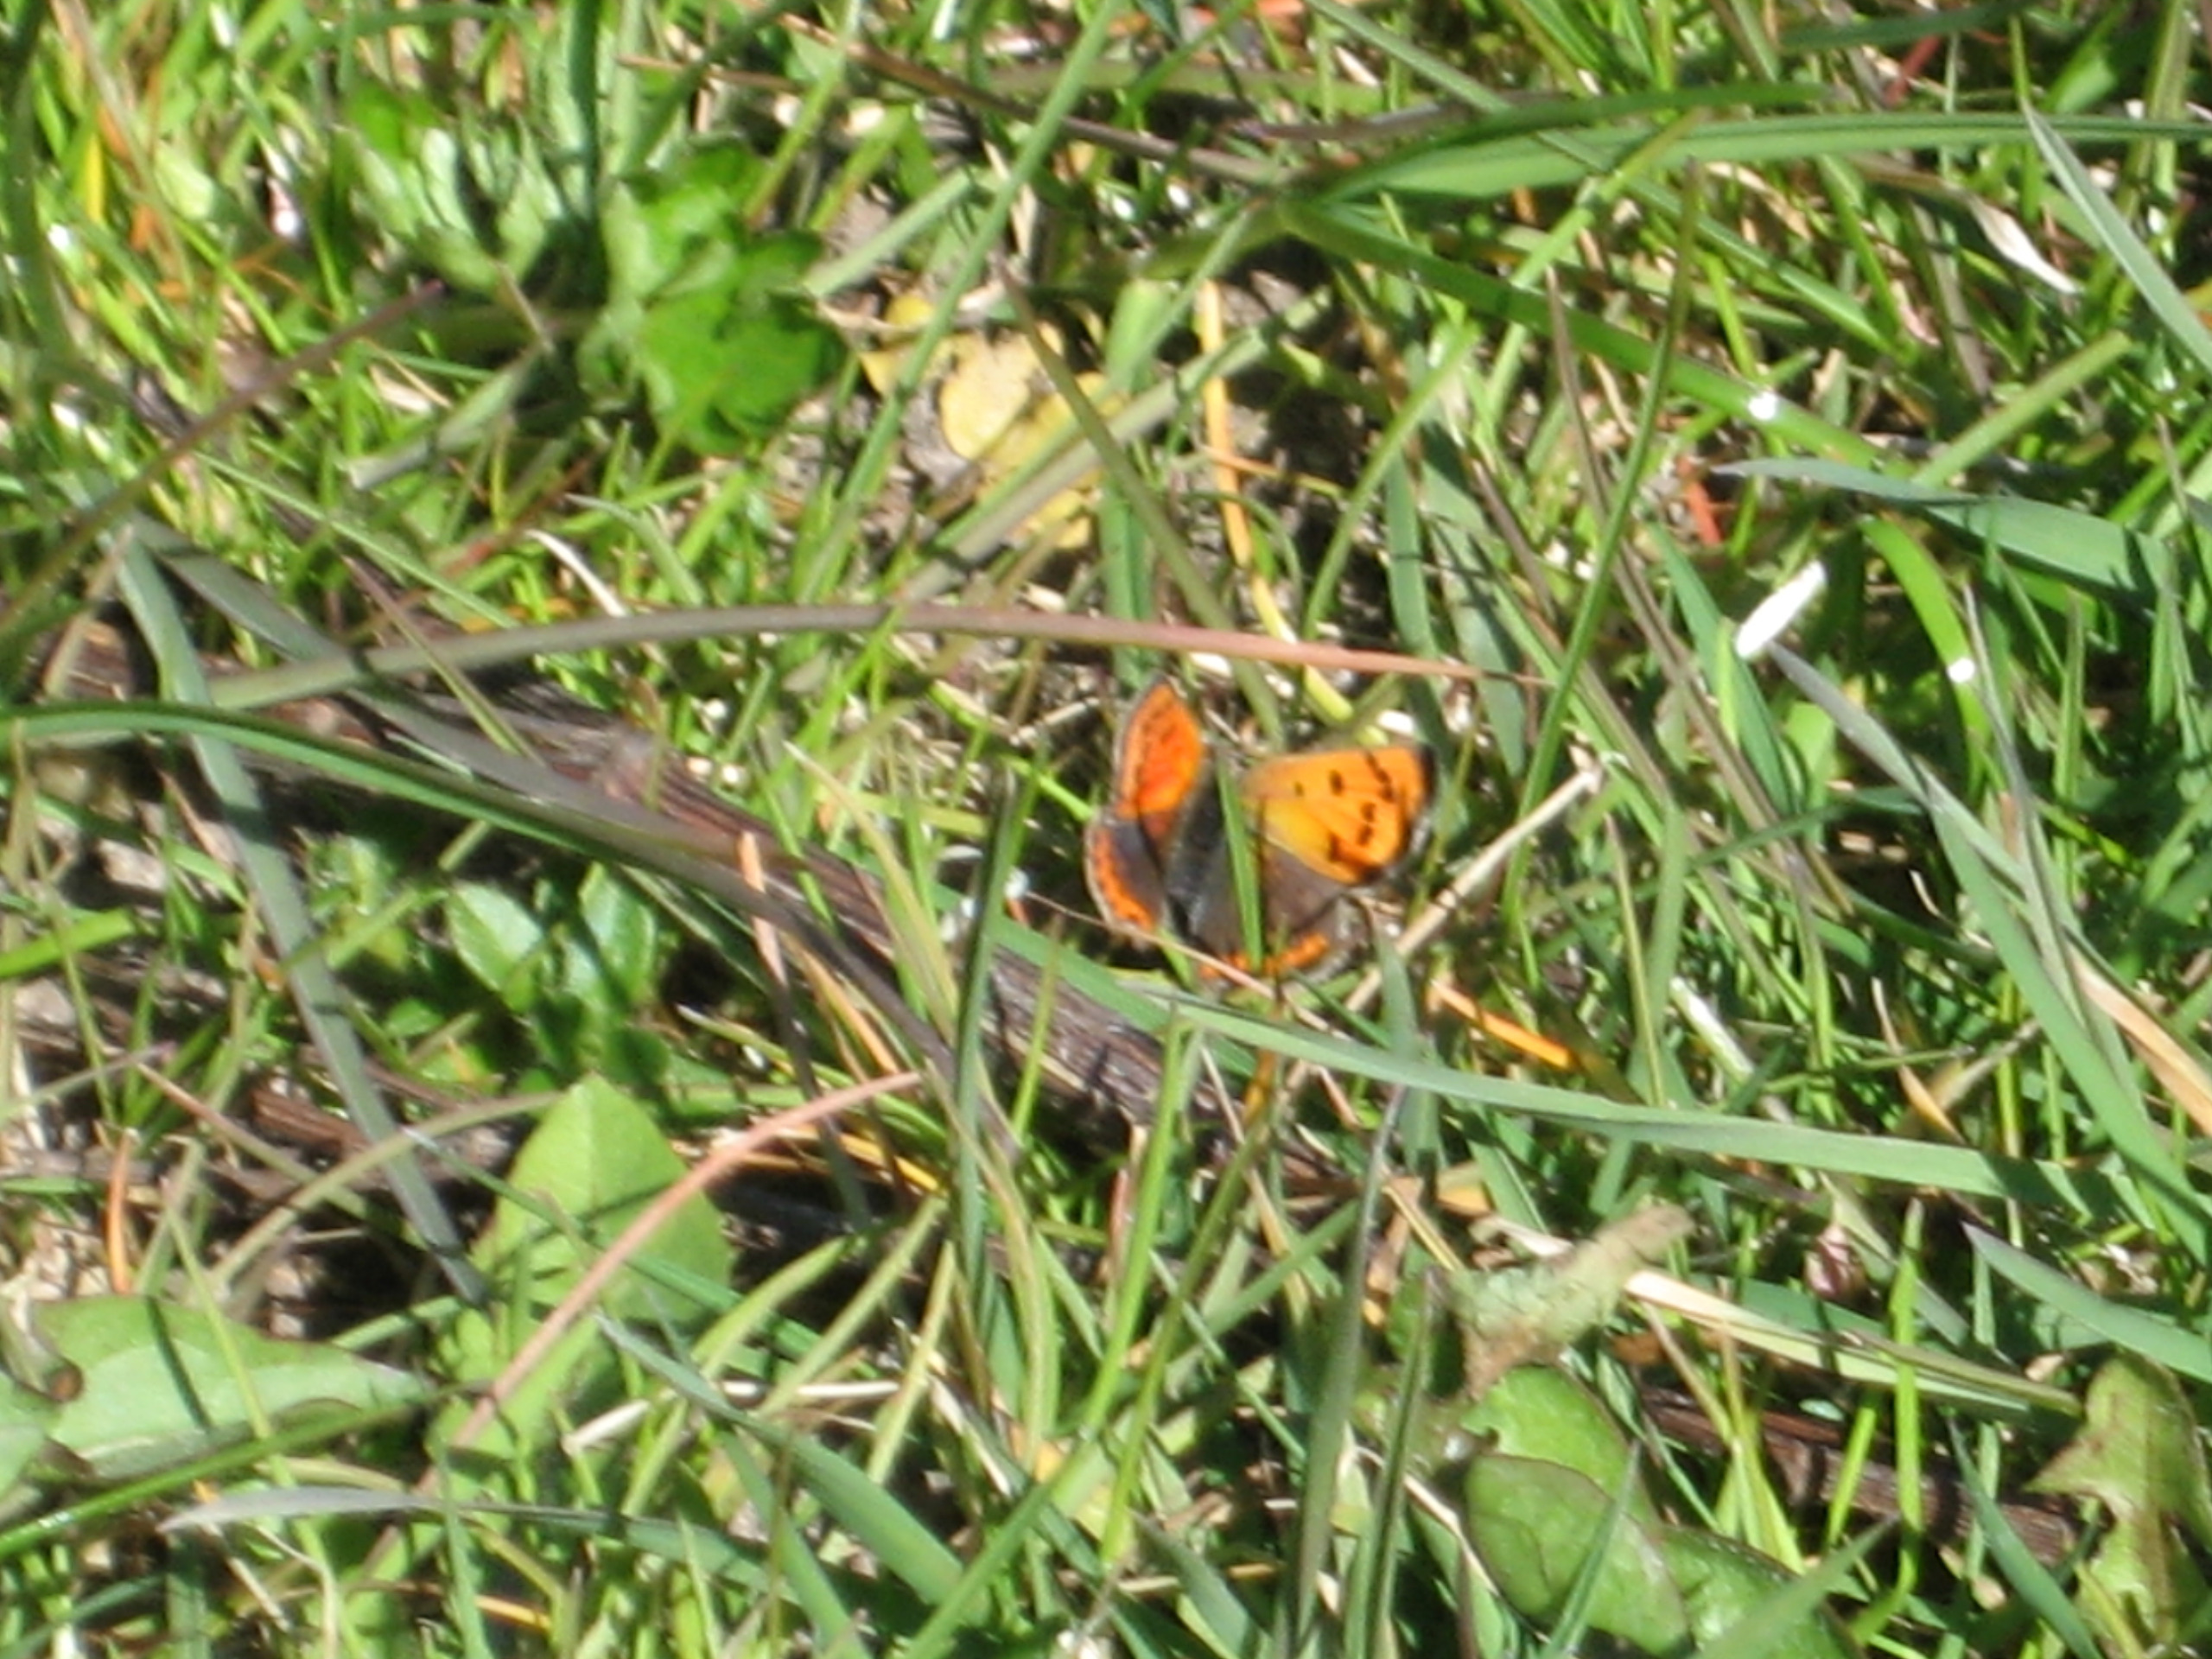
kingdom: Animalia
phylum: Arthropoda
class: Insecta
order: Lepidoptera
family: Lycaenidae
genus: Lycaena
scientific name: Lycaena phlaeas
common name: Lille ildfugl
